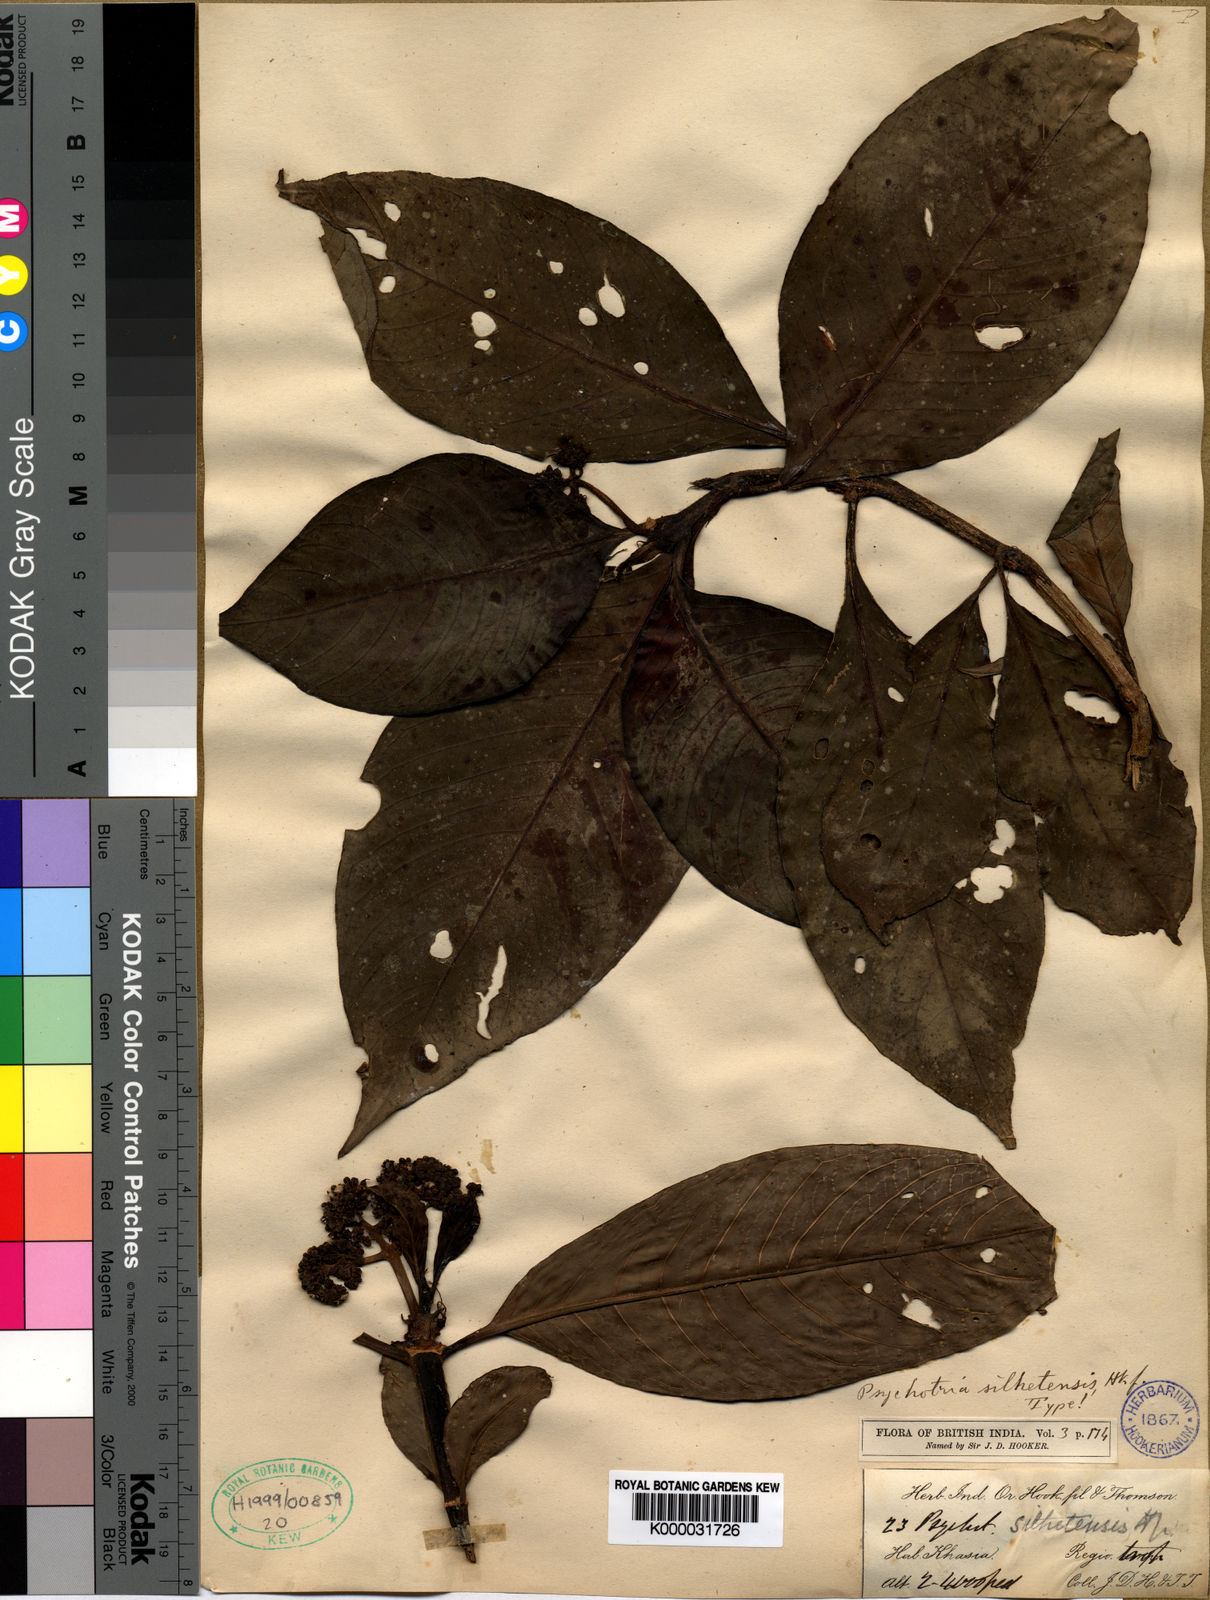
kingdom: Plantae
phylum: Tracheophyta
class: Magnoliopsida
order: Gentianales
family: Rubiaceae
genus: Psychotria
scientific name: Psychotria silhetensis
